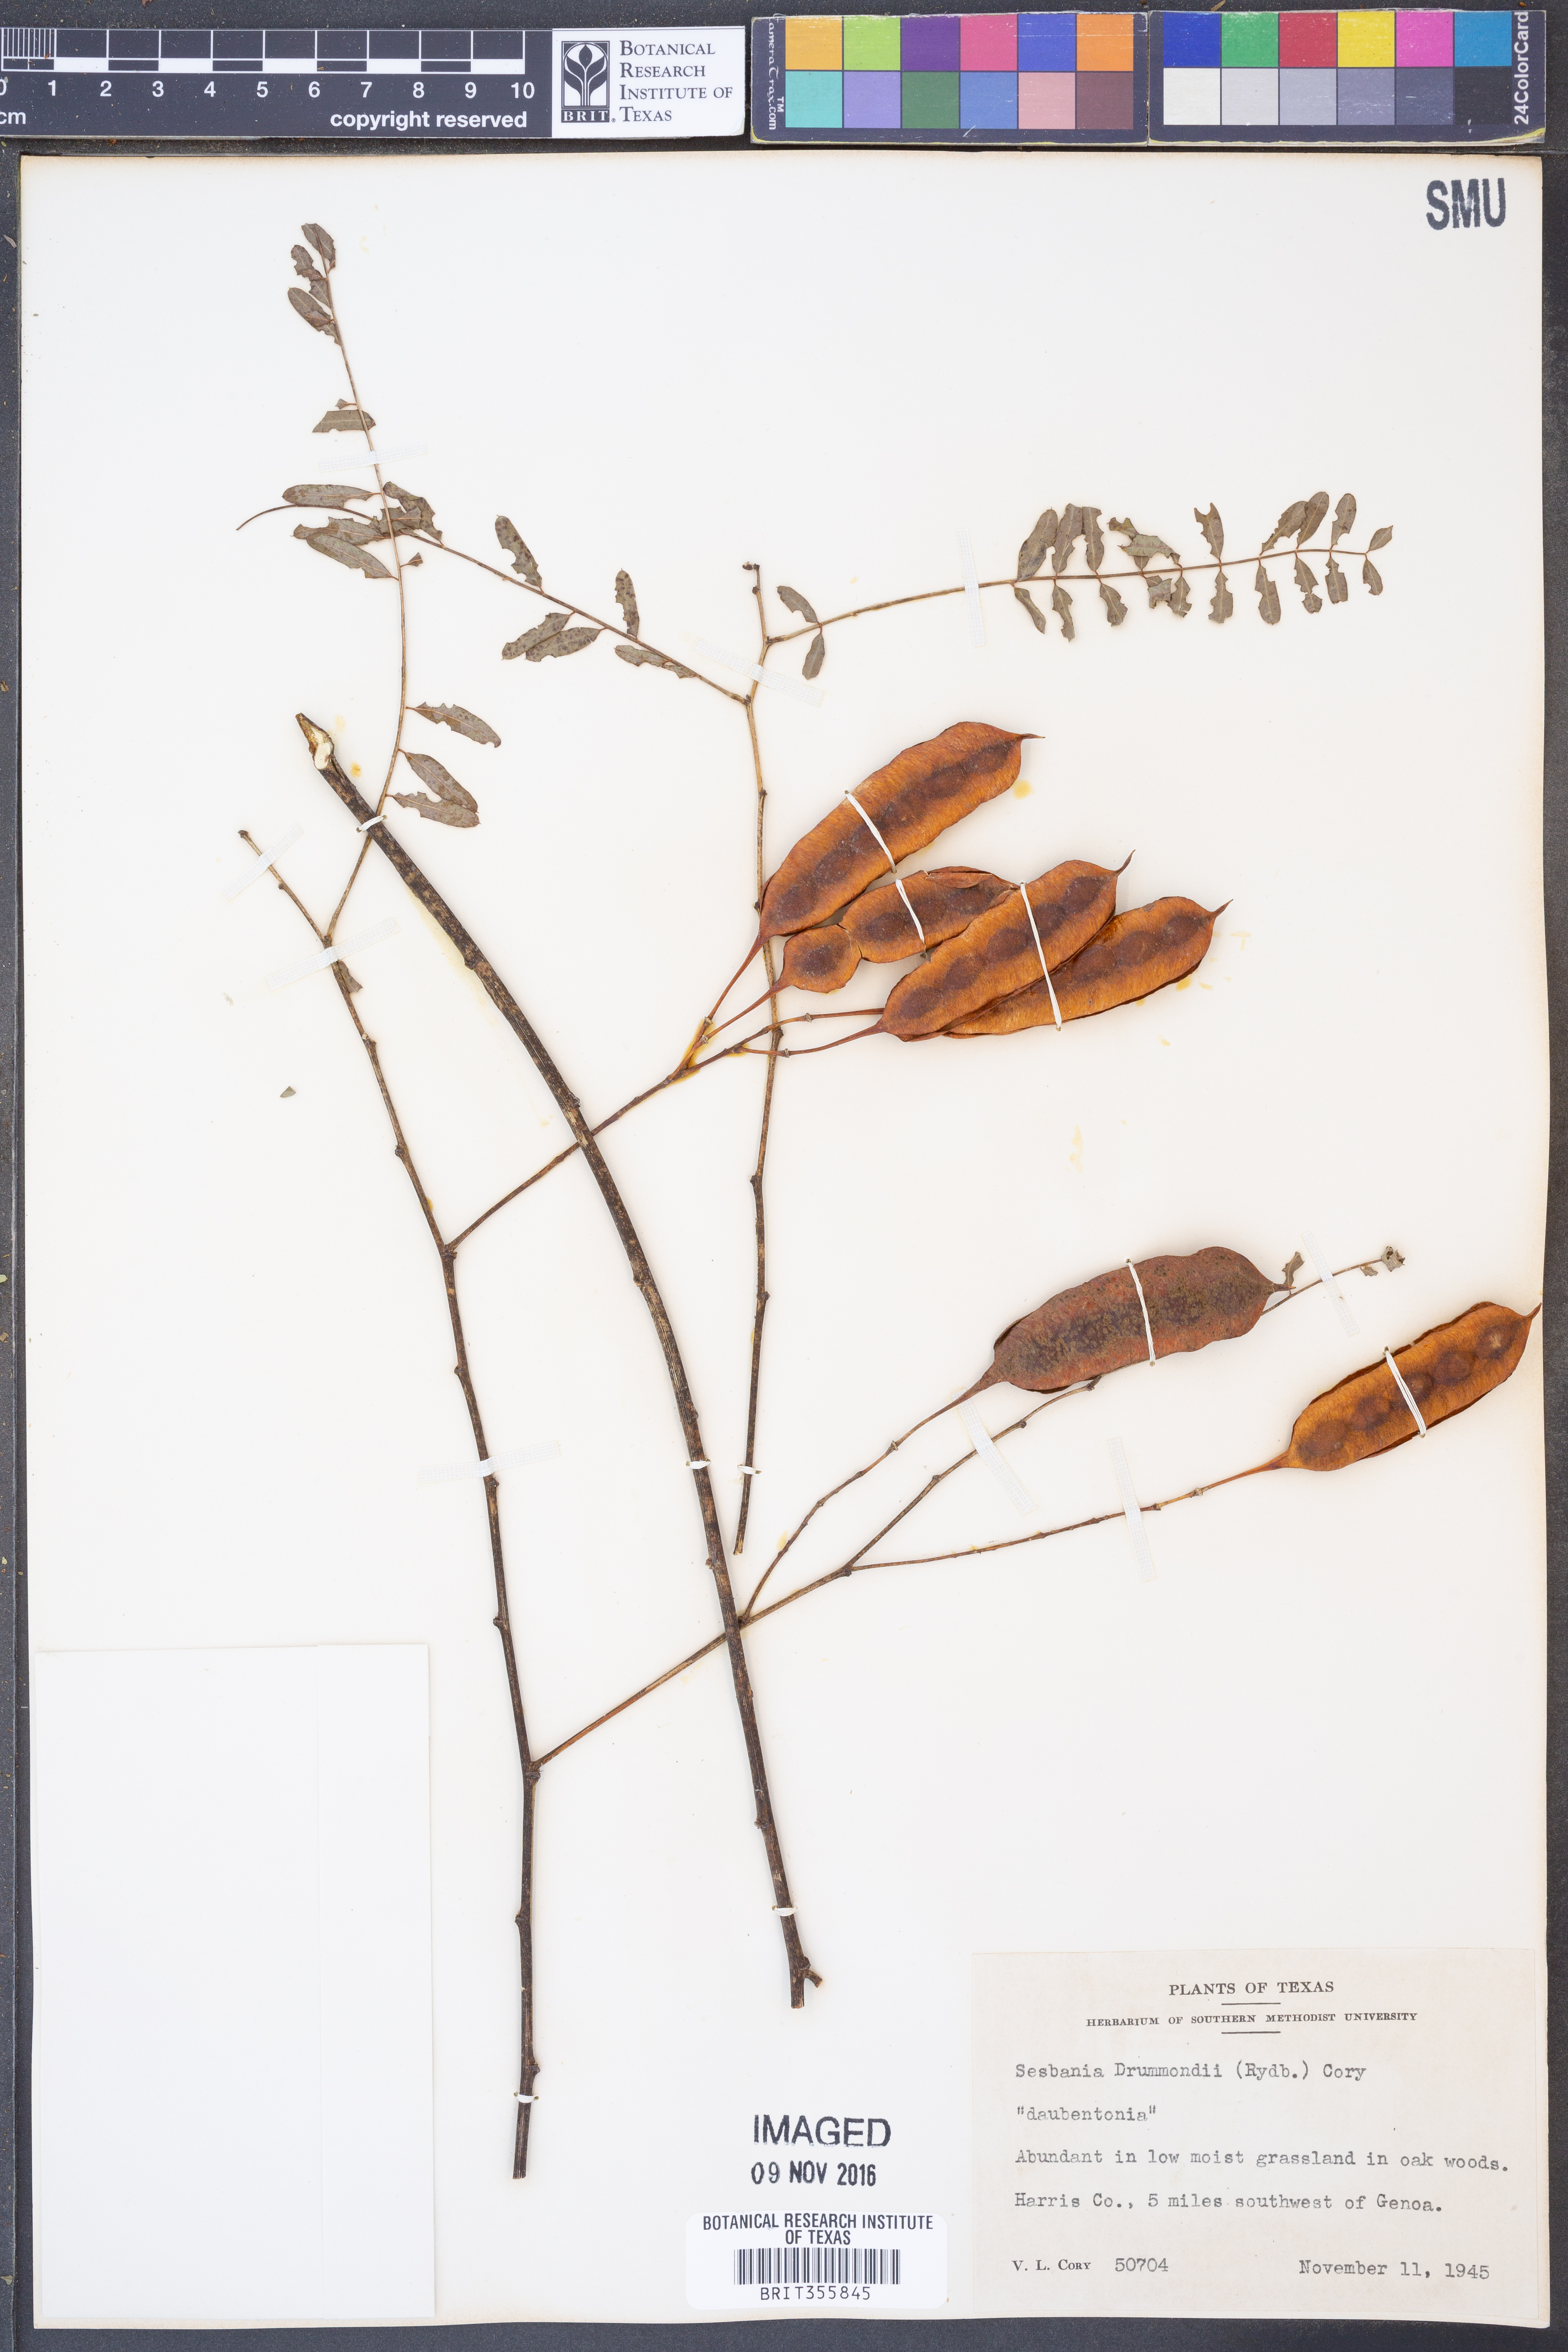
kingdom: Plantae
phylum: Tracheophyta
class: Magnoliopsida
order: Fabales
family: Fabaceae
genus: Sesbania
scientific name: Sesbania drummondii
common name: Poison-bean
